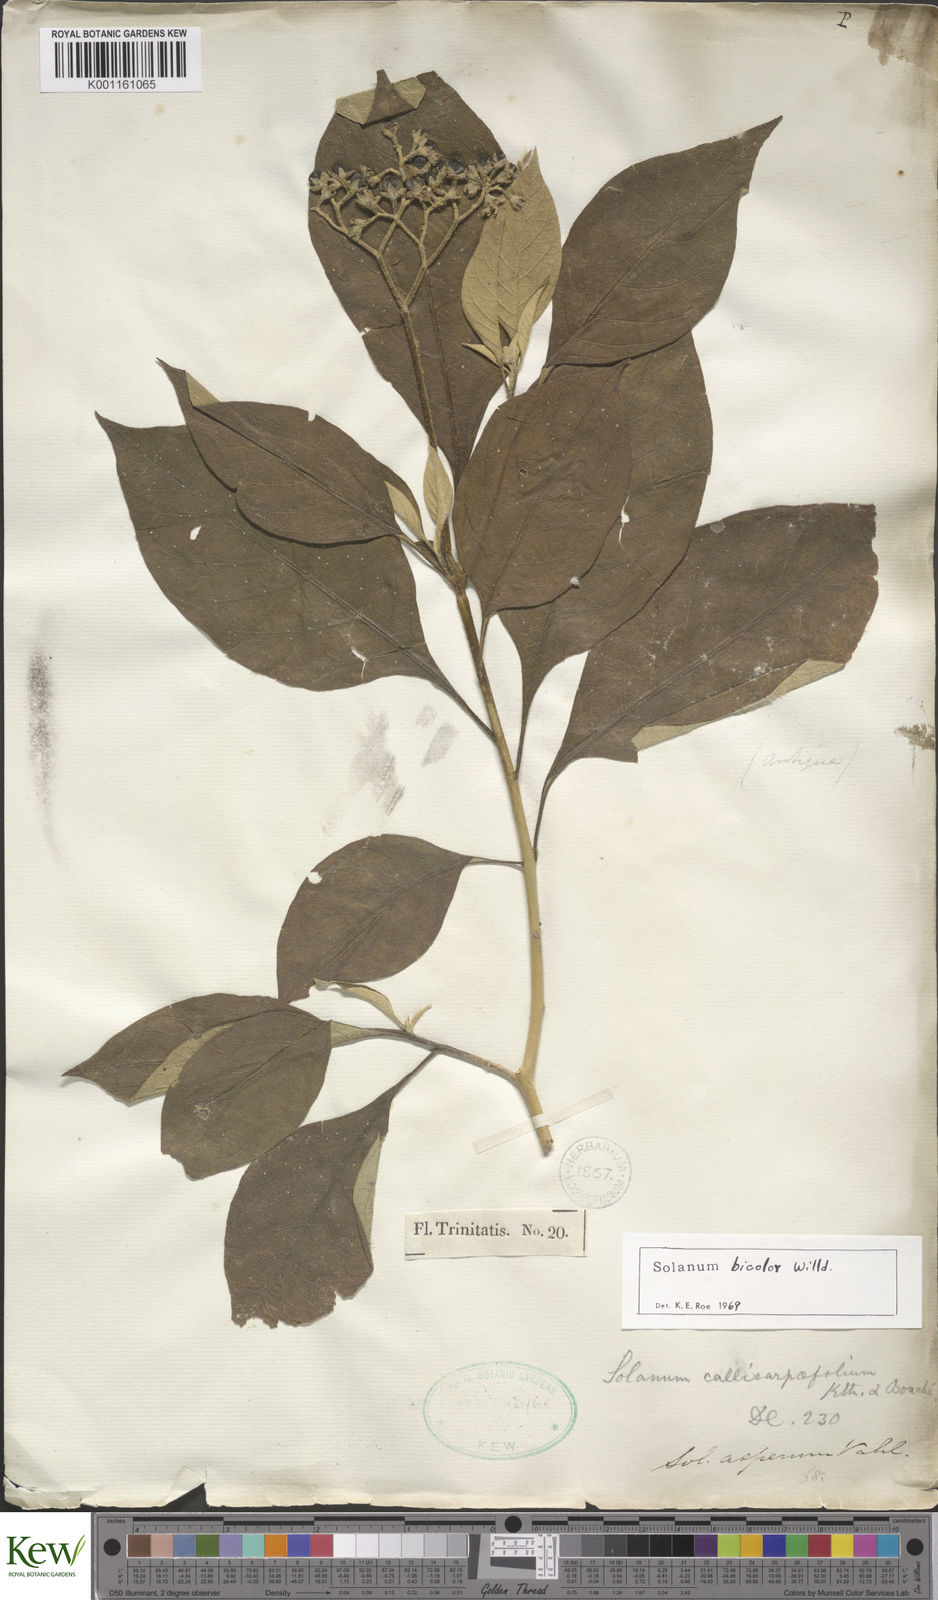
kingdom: Plantae
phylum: Tracheophyta
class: Magnoliopsida
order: Solanales
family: Solanaceae
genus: Solanum
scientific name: Solanum bicolor
